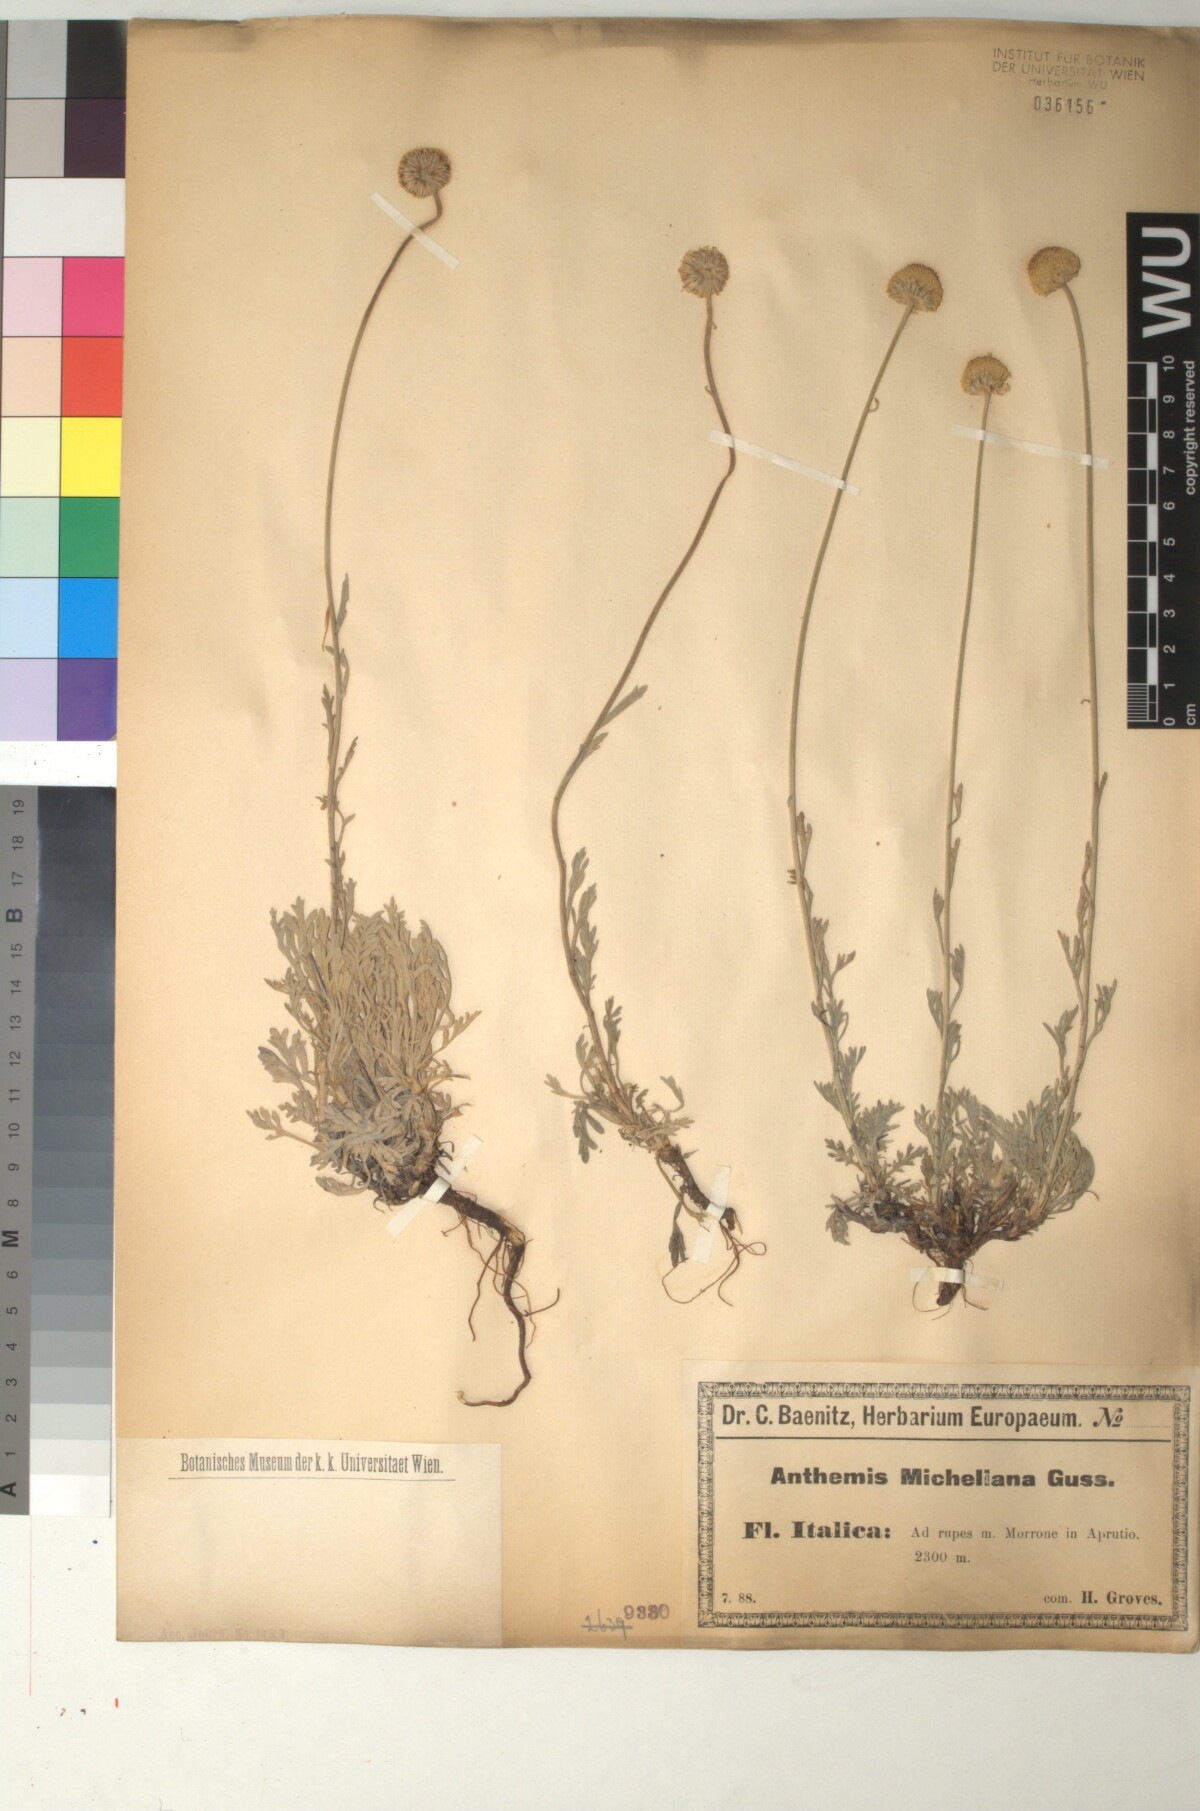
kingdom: Plantae
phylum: Tracheophyta
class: Magnoliopsida
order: Asterales
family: Asteraceae
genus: Anthemis
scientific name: Anthemis cretica
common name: Mountain dog-daisy
